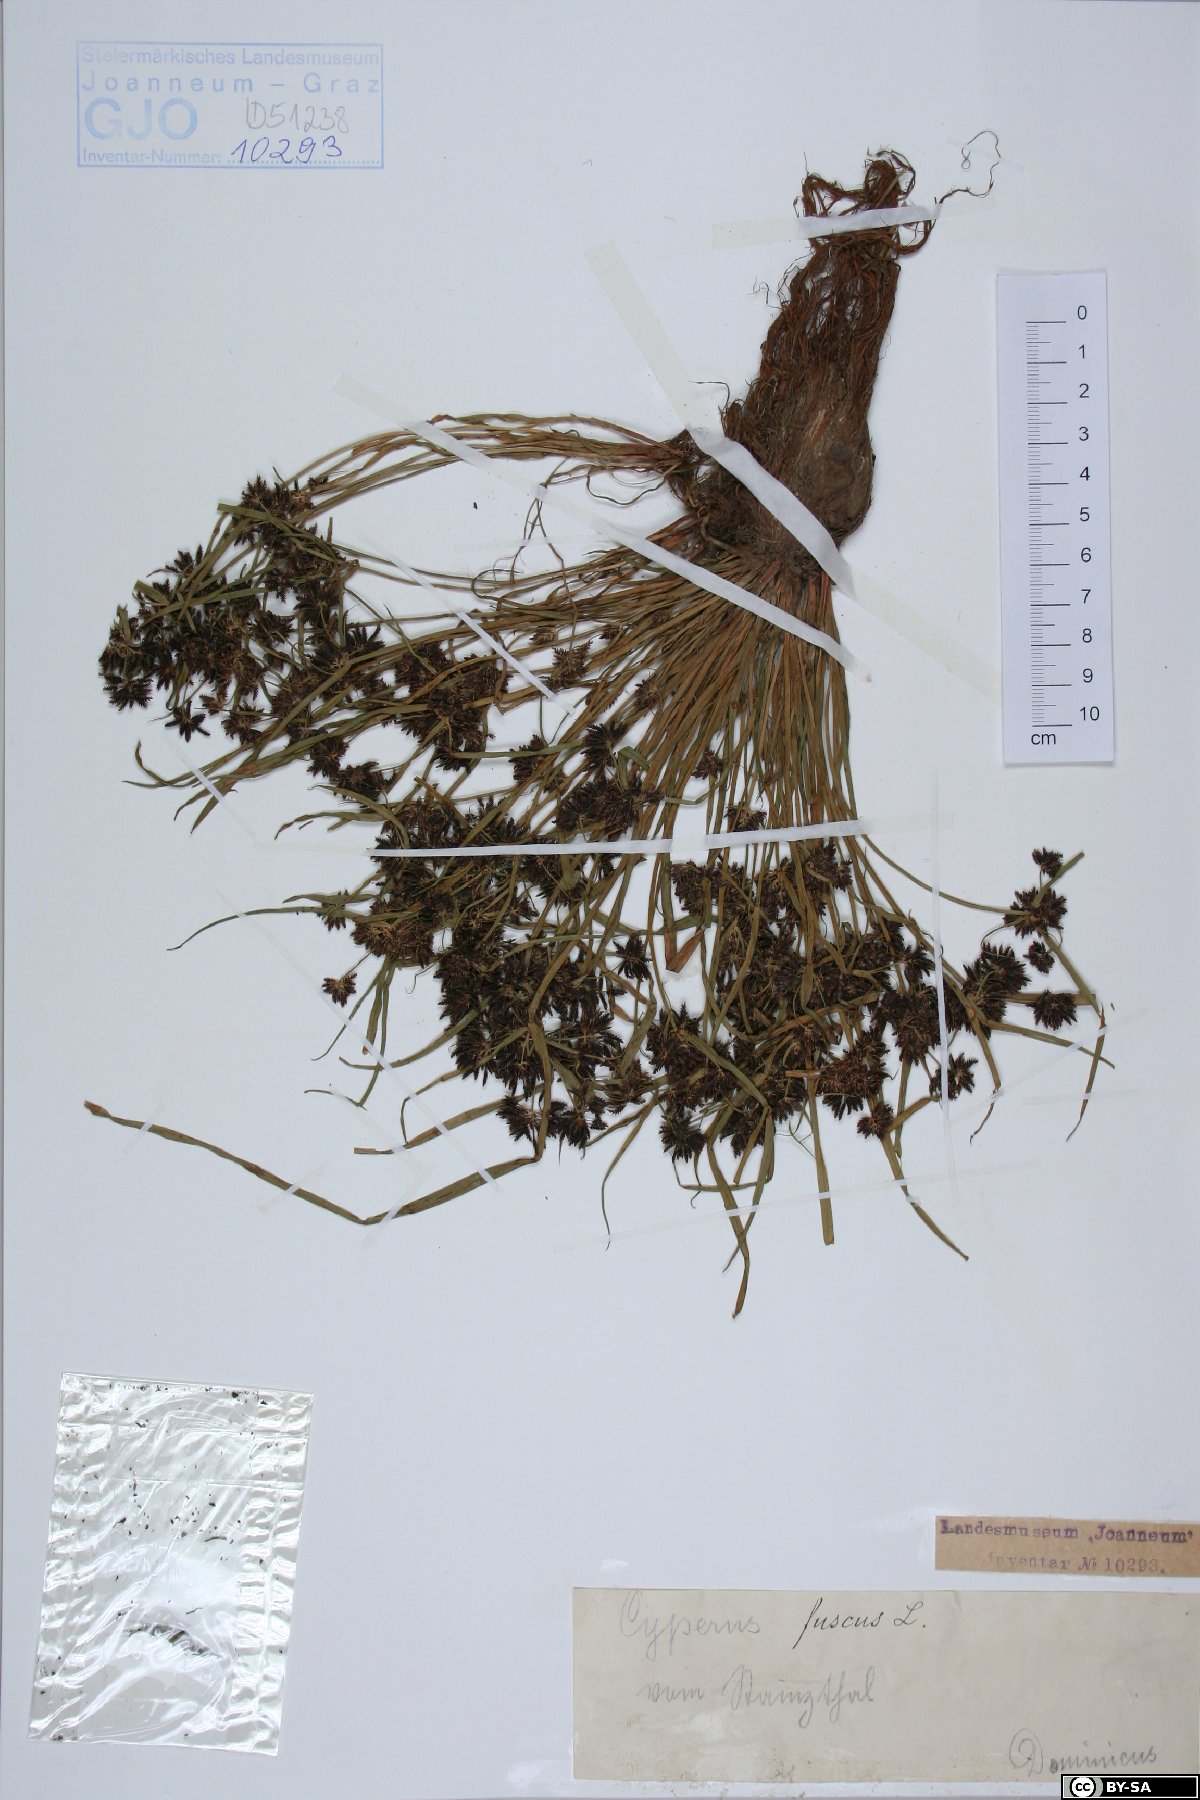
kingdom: Plantae
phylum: Tracheophyta
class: Liliopsida
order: Poales
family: Cyperaceae
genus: Cyperus
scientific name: Cyperus fuscus
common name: Brown galingale
